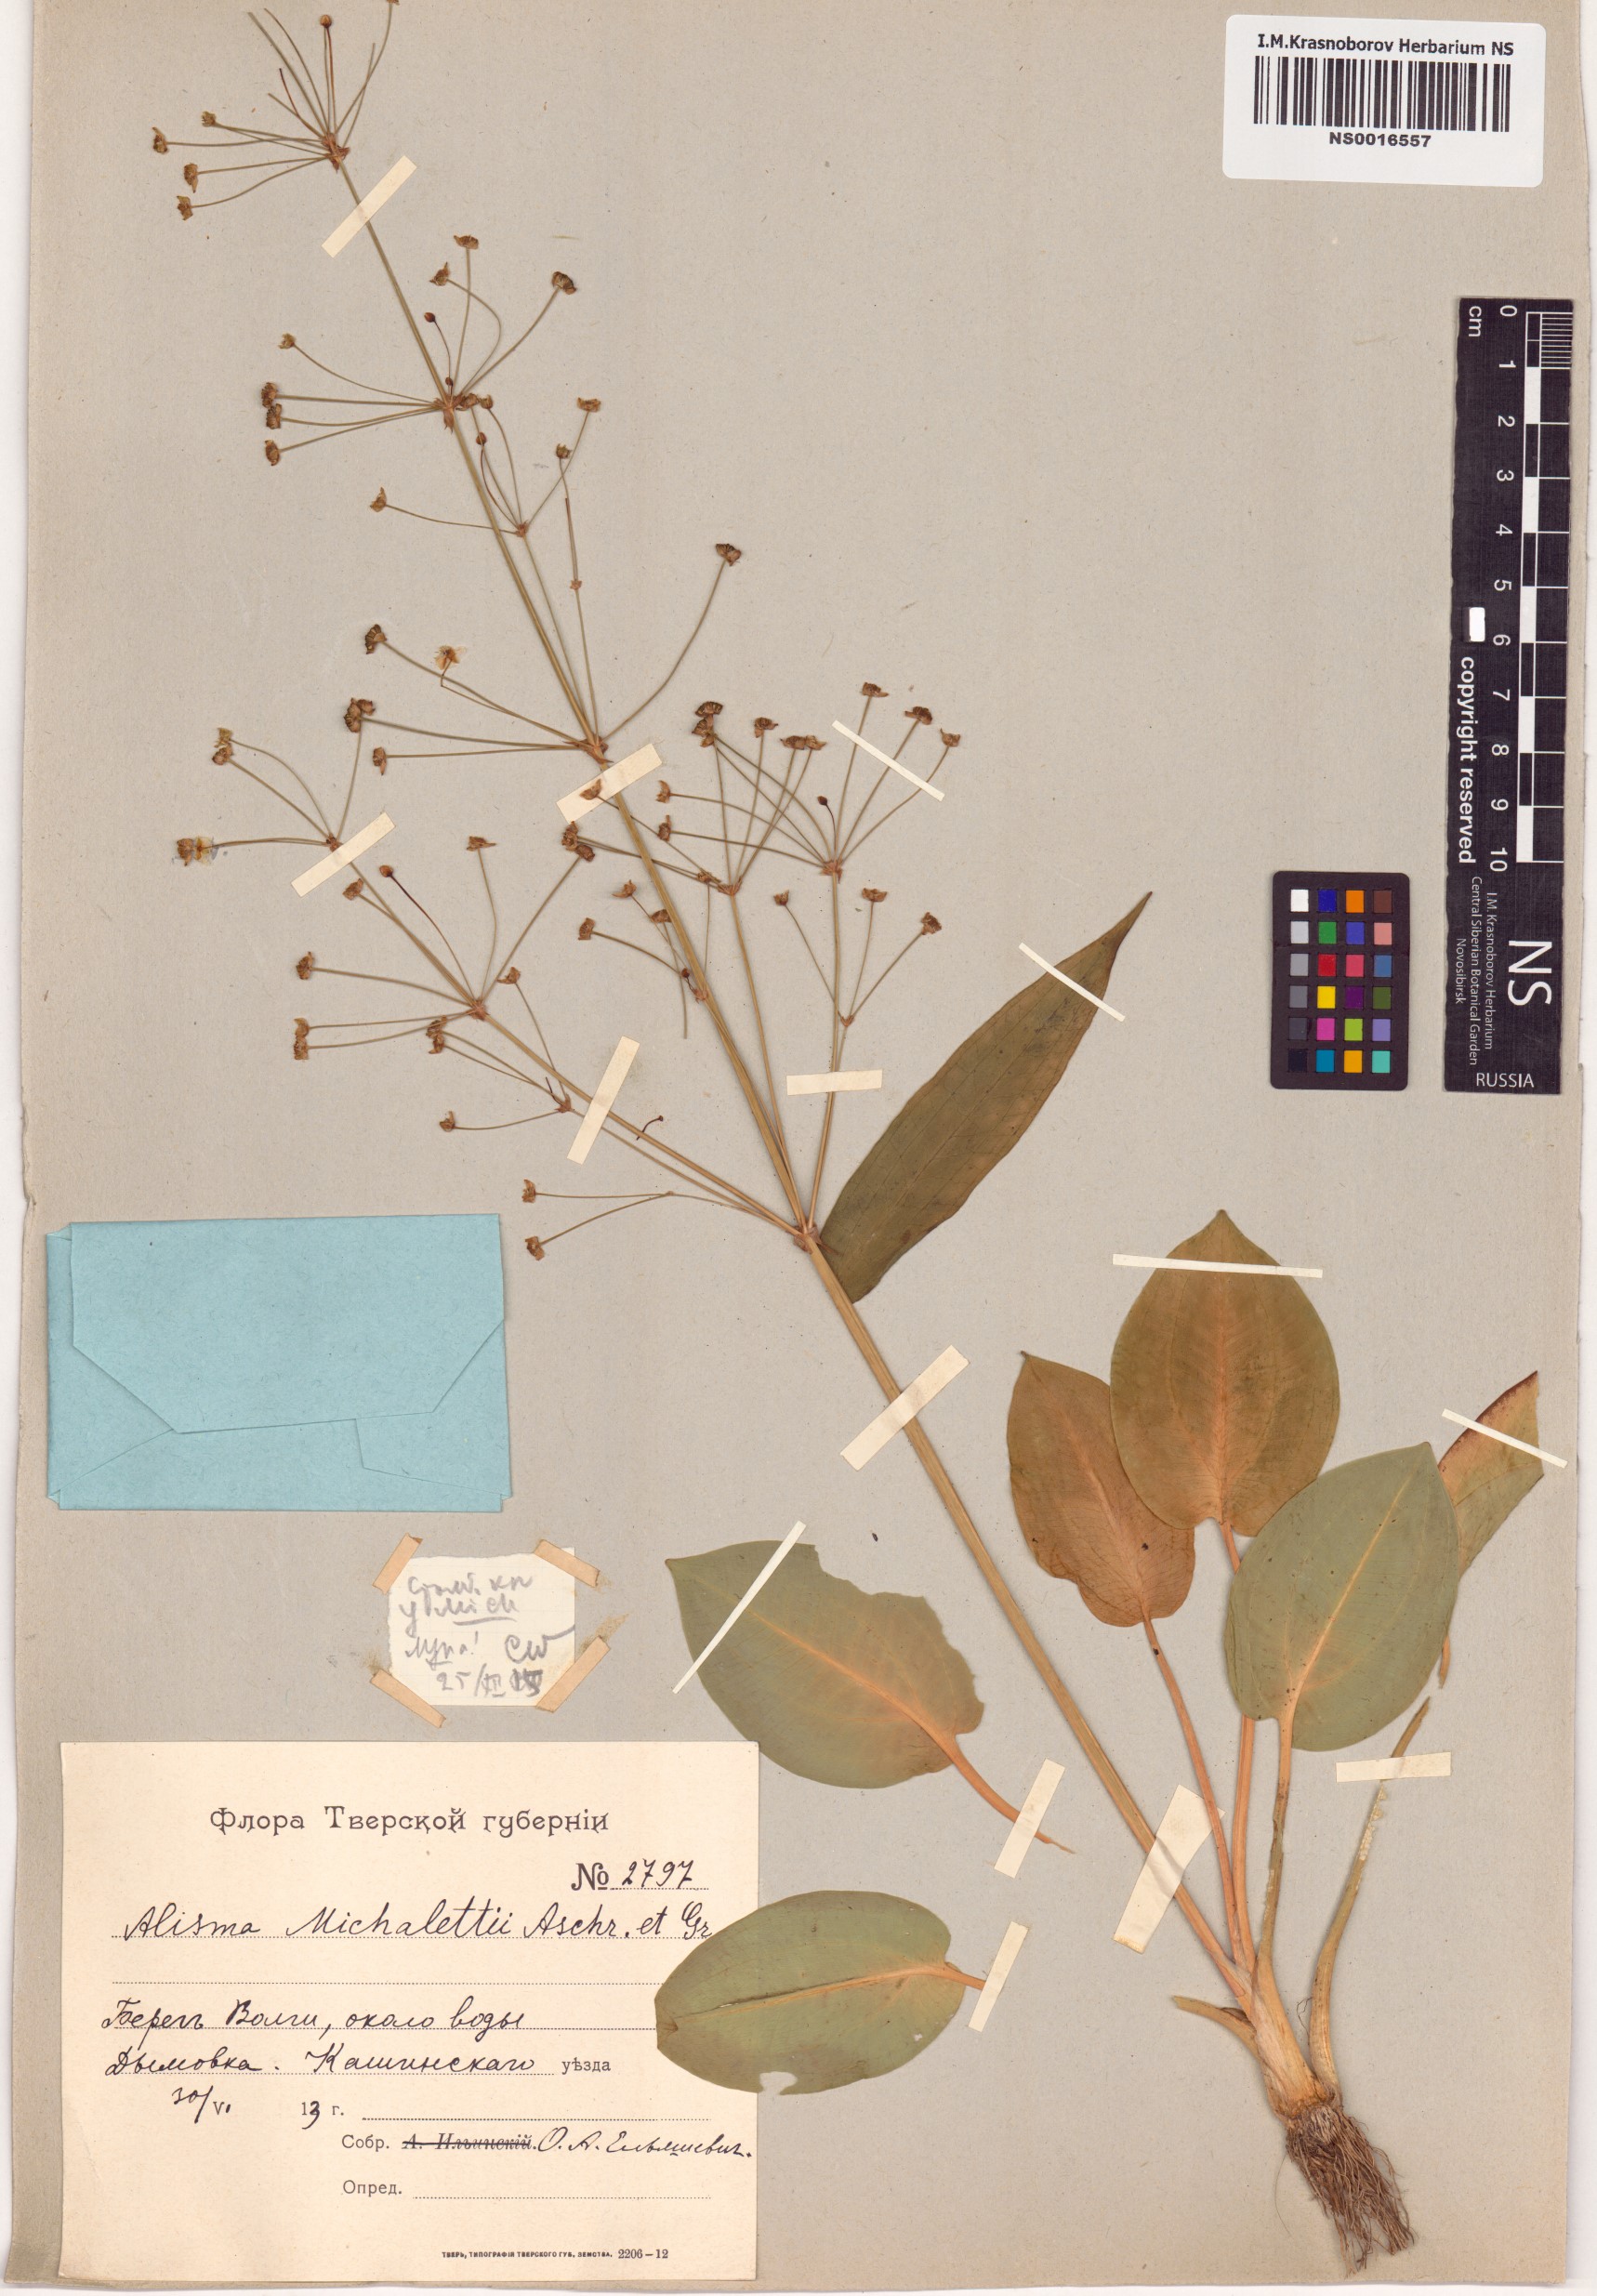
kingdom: Plantae
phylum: Tracheophyta
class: Liliopsida
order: Alismatales
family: Alismataceae
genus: Alisma
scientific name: Alisma plantago-aquatica
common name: Water-plantain
